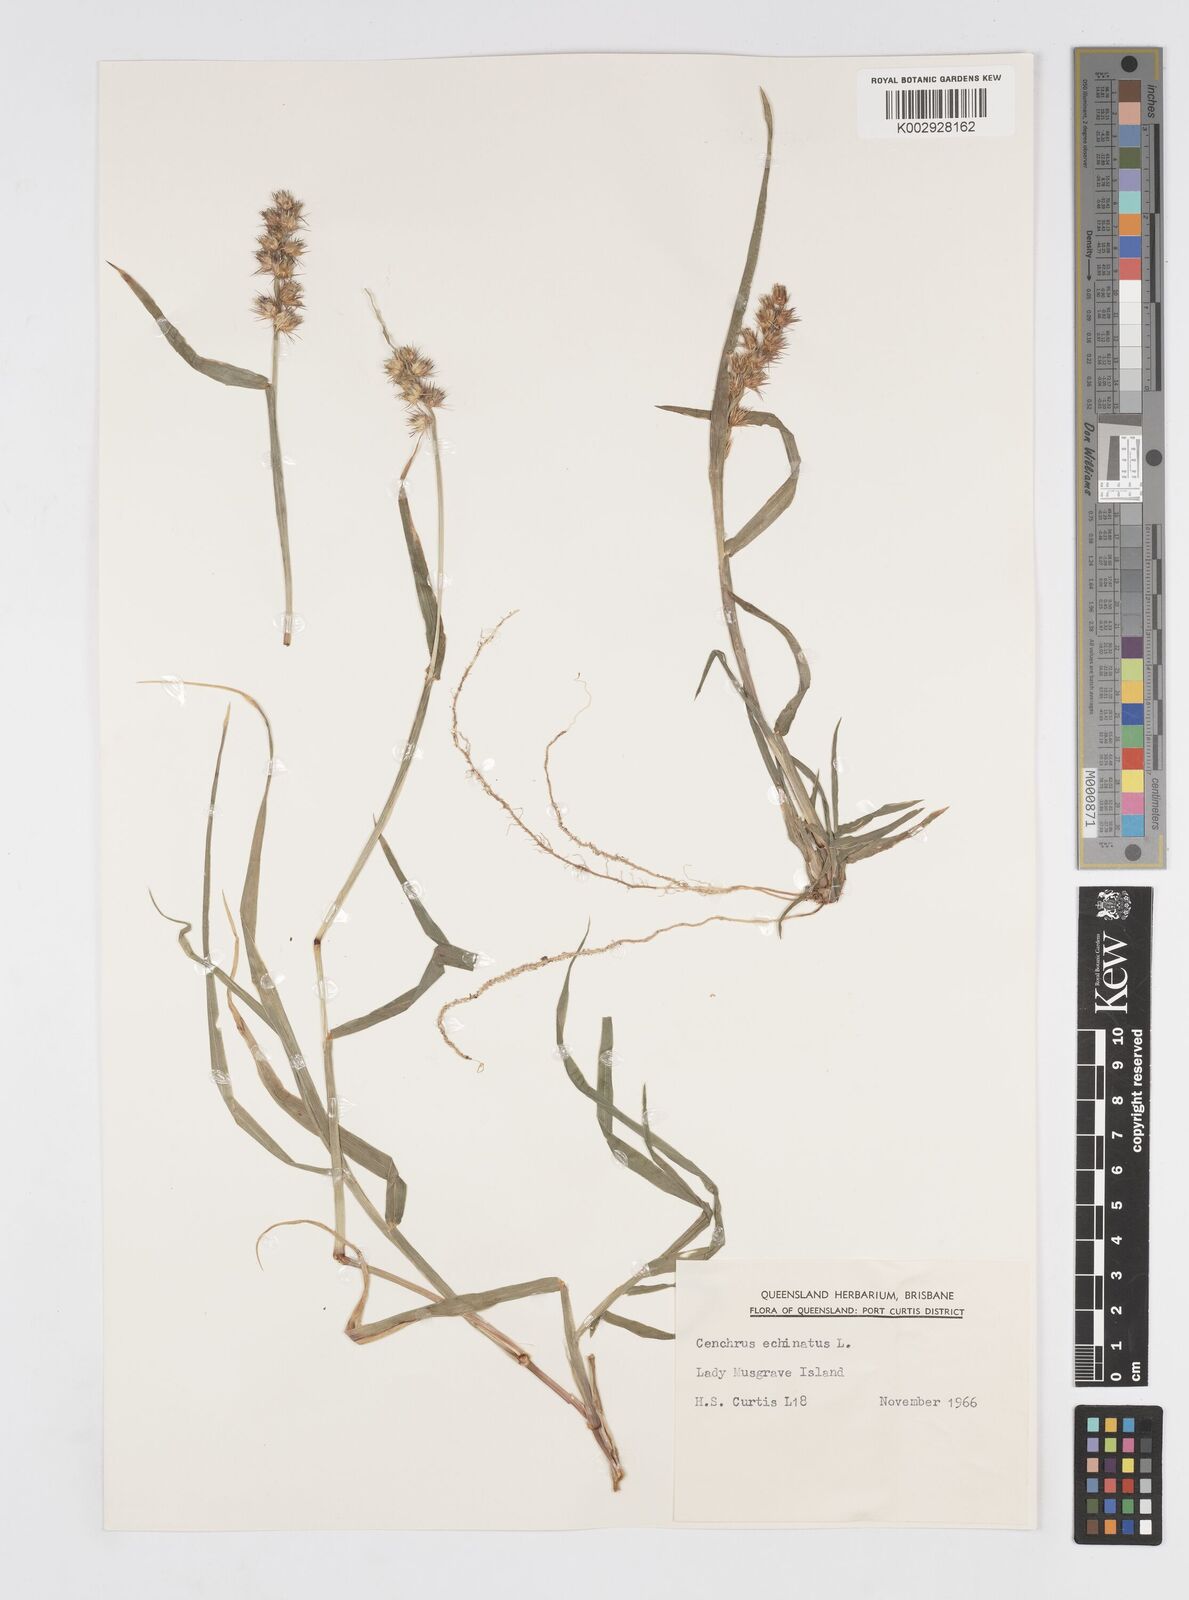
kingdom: Plantae
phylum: Tracheophyta
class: Liliopsida
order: Poales
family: Poaceae
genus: Cenchrus
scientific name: Cenchrus echinatus
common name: Southern sandbur
